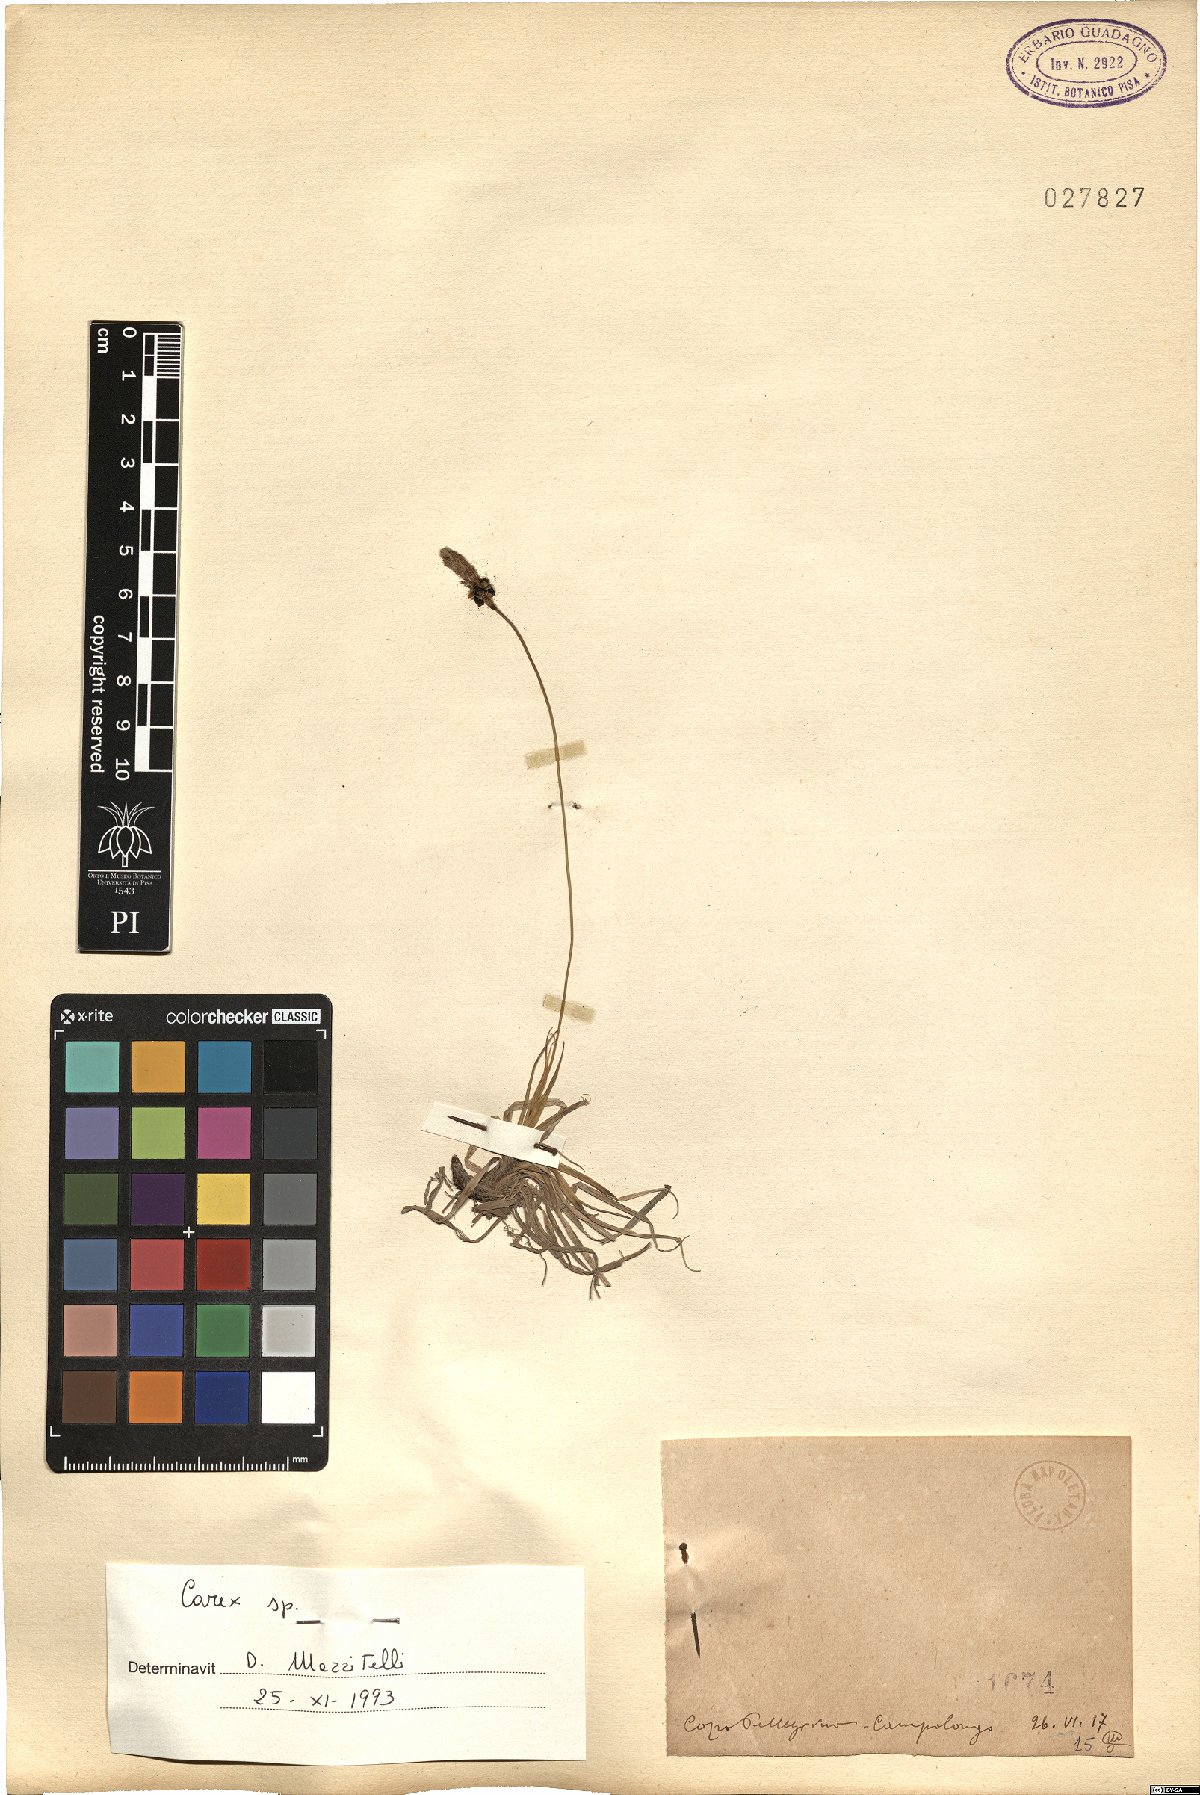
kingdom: Plantae
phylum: Tracheophyta
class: Liliopsida
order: Poales
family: Cyperaceae
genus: Carex
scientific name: Carex
